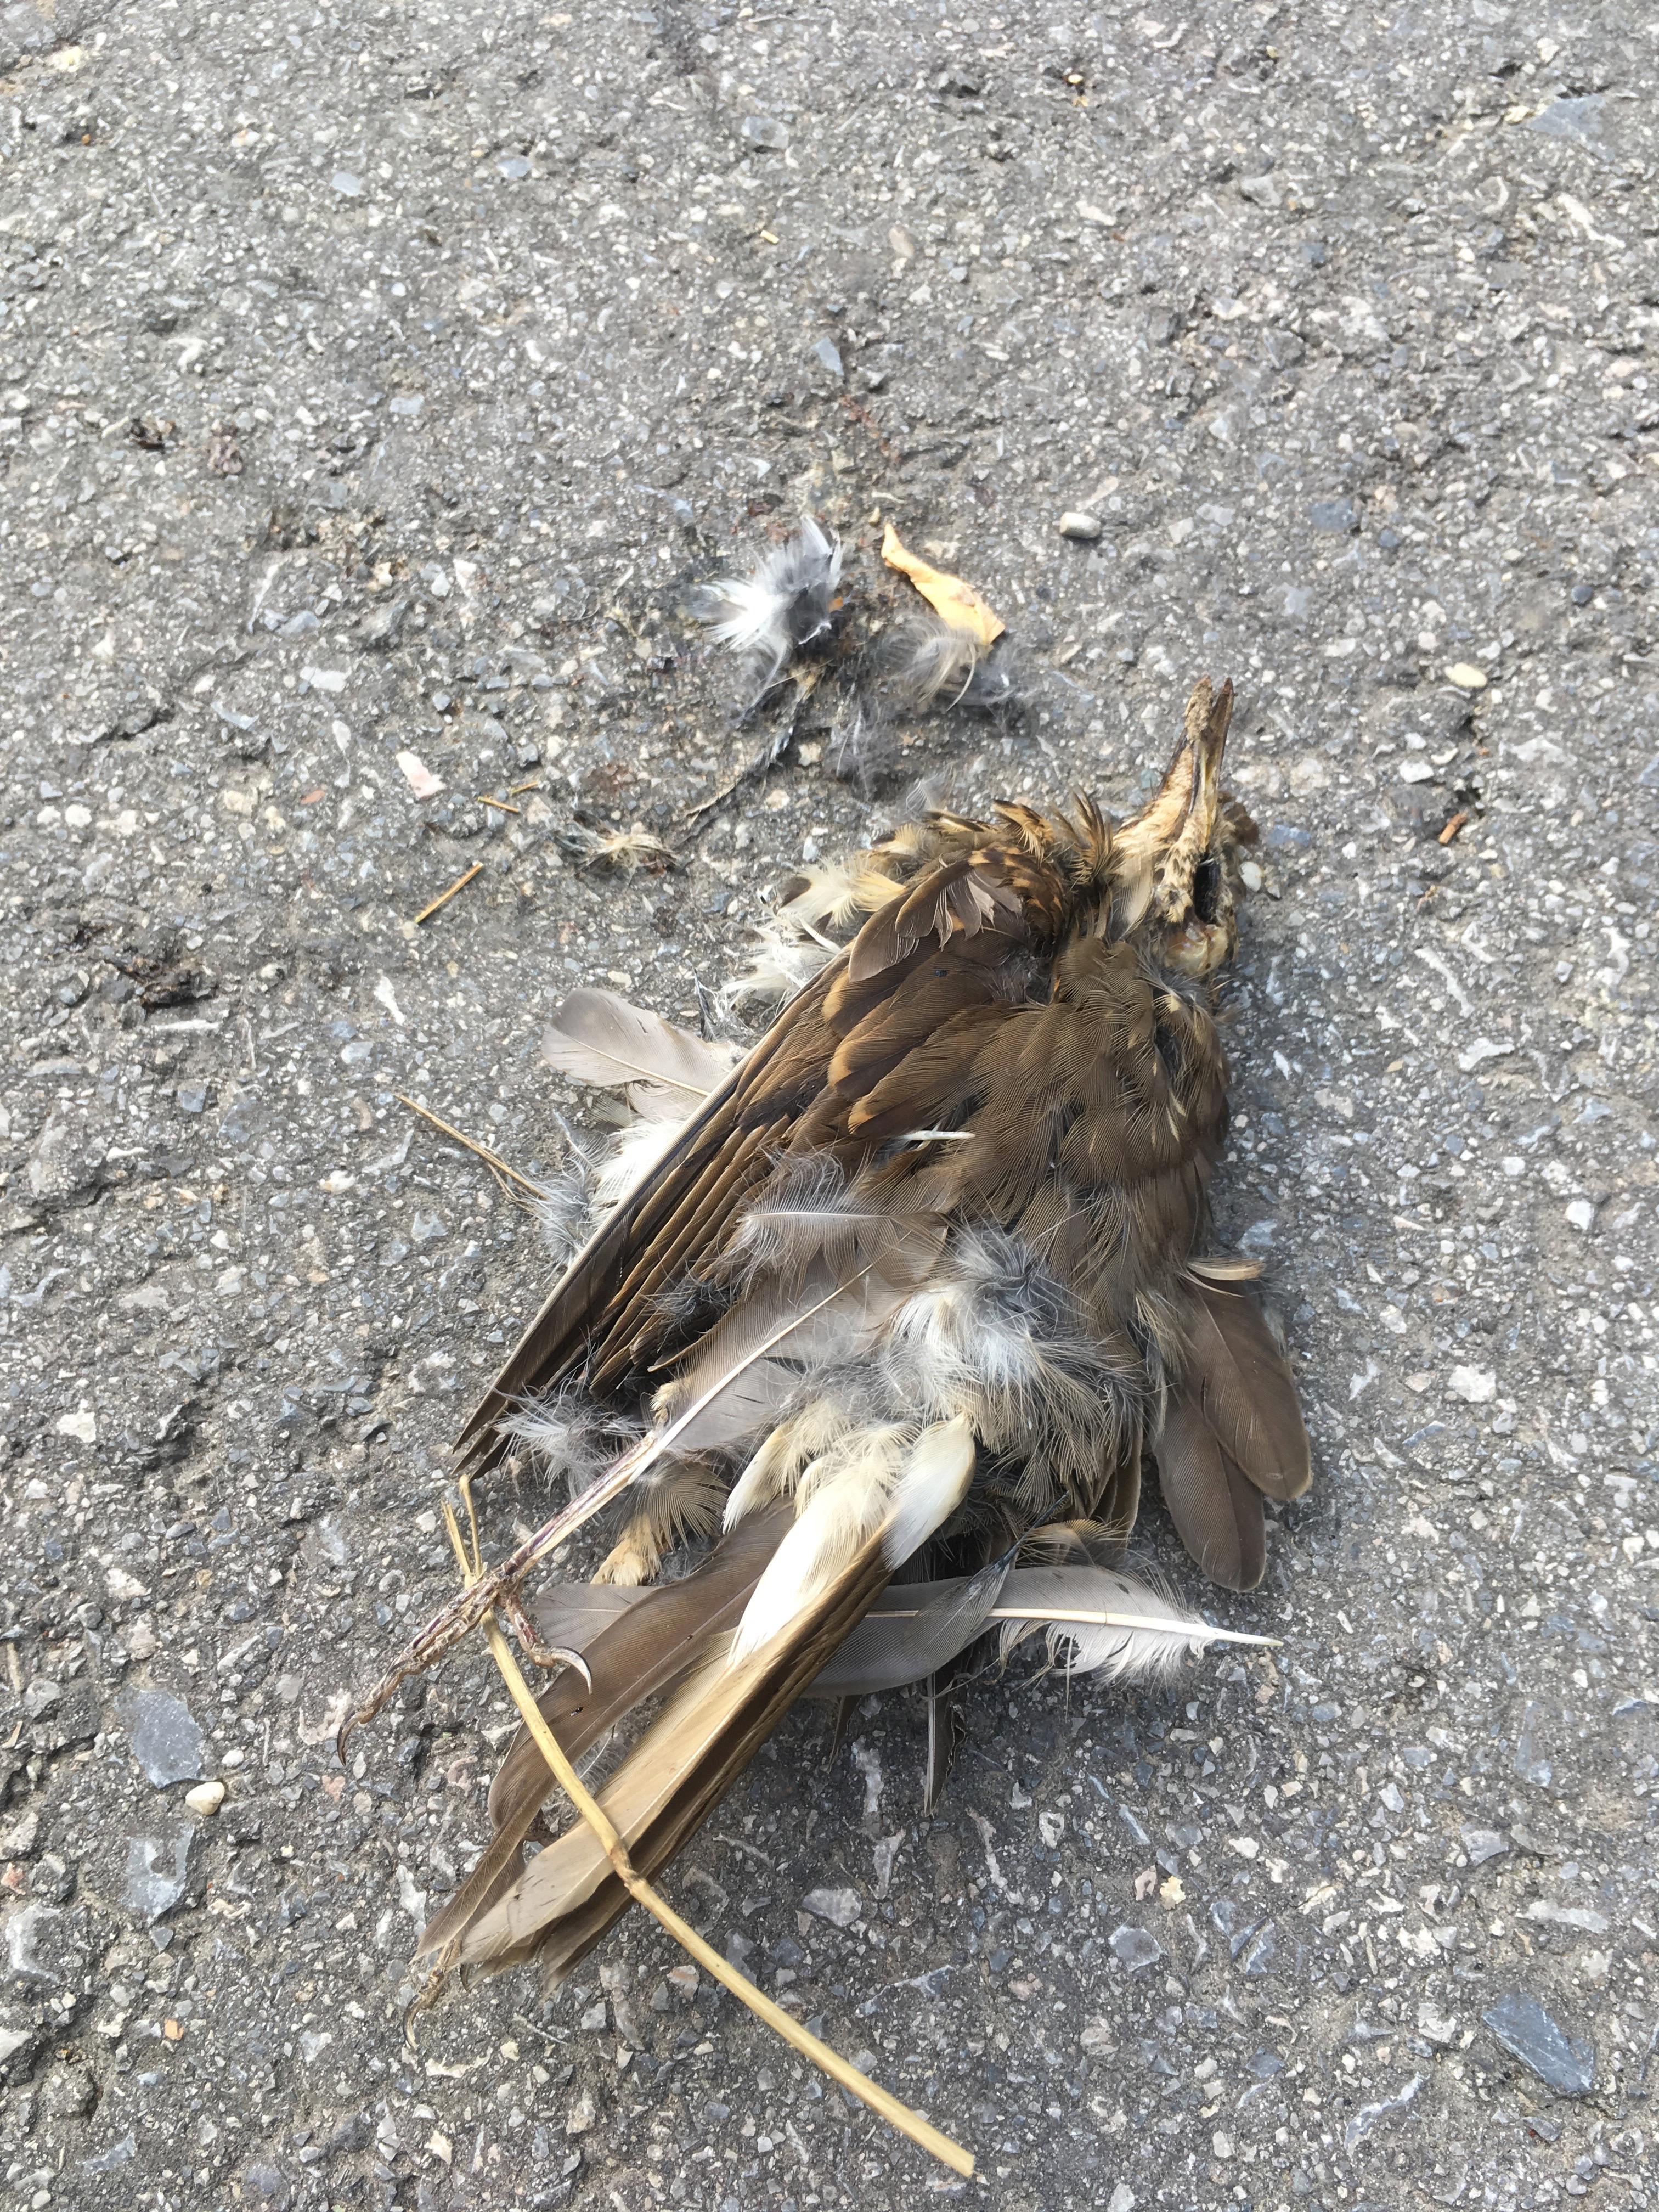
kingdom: Animalia
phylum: Chordata
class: Aves
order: Passeriformes
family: Turdidae
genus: Turdus
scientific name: Turdus philomelos
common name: Song thrush
